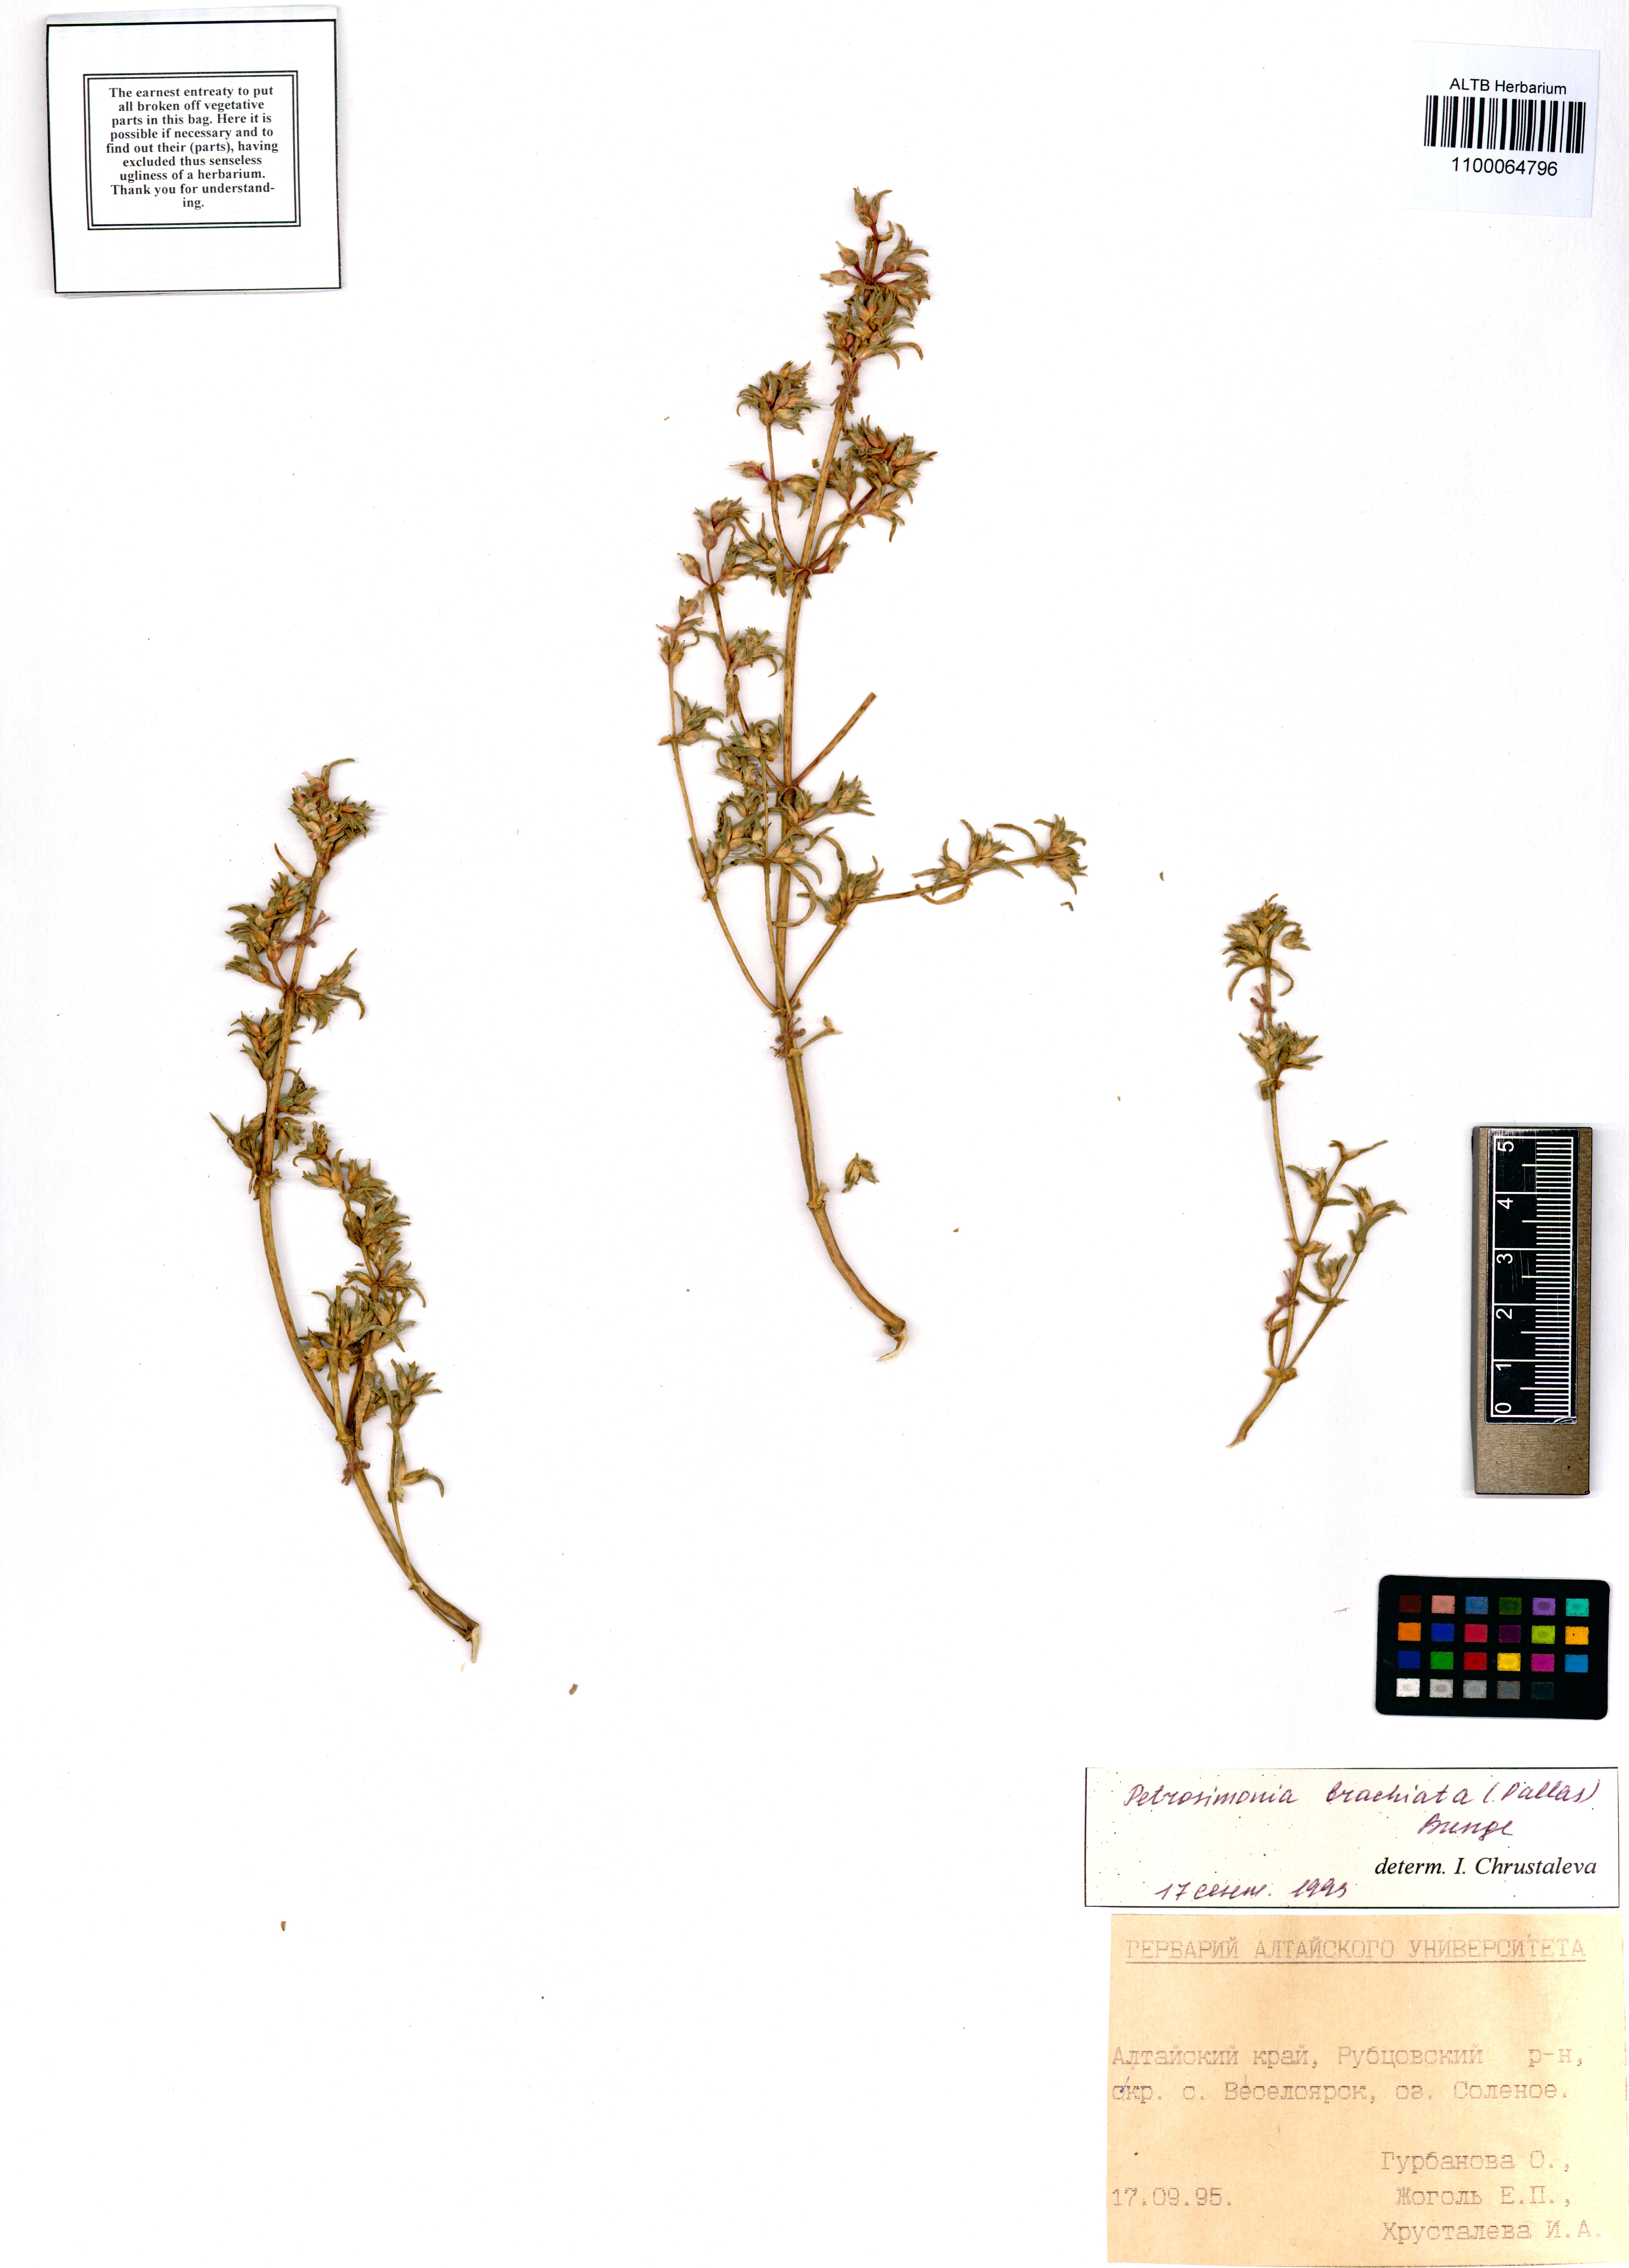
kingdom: Plantae
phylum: Tracheophyta
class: Magnoliopsida
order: Caryophyllales
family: Amaranthaceae
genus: Petrosimonia
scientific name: Petrosimonia brachiata
